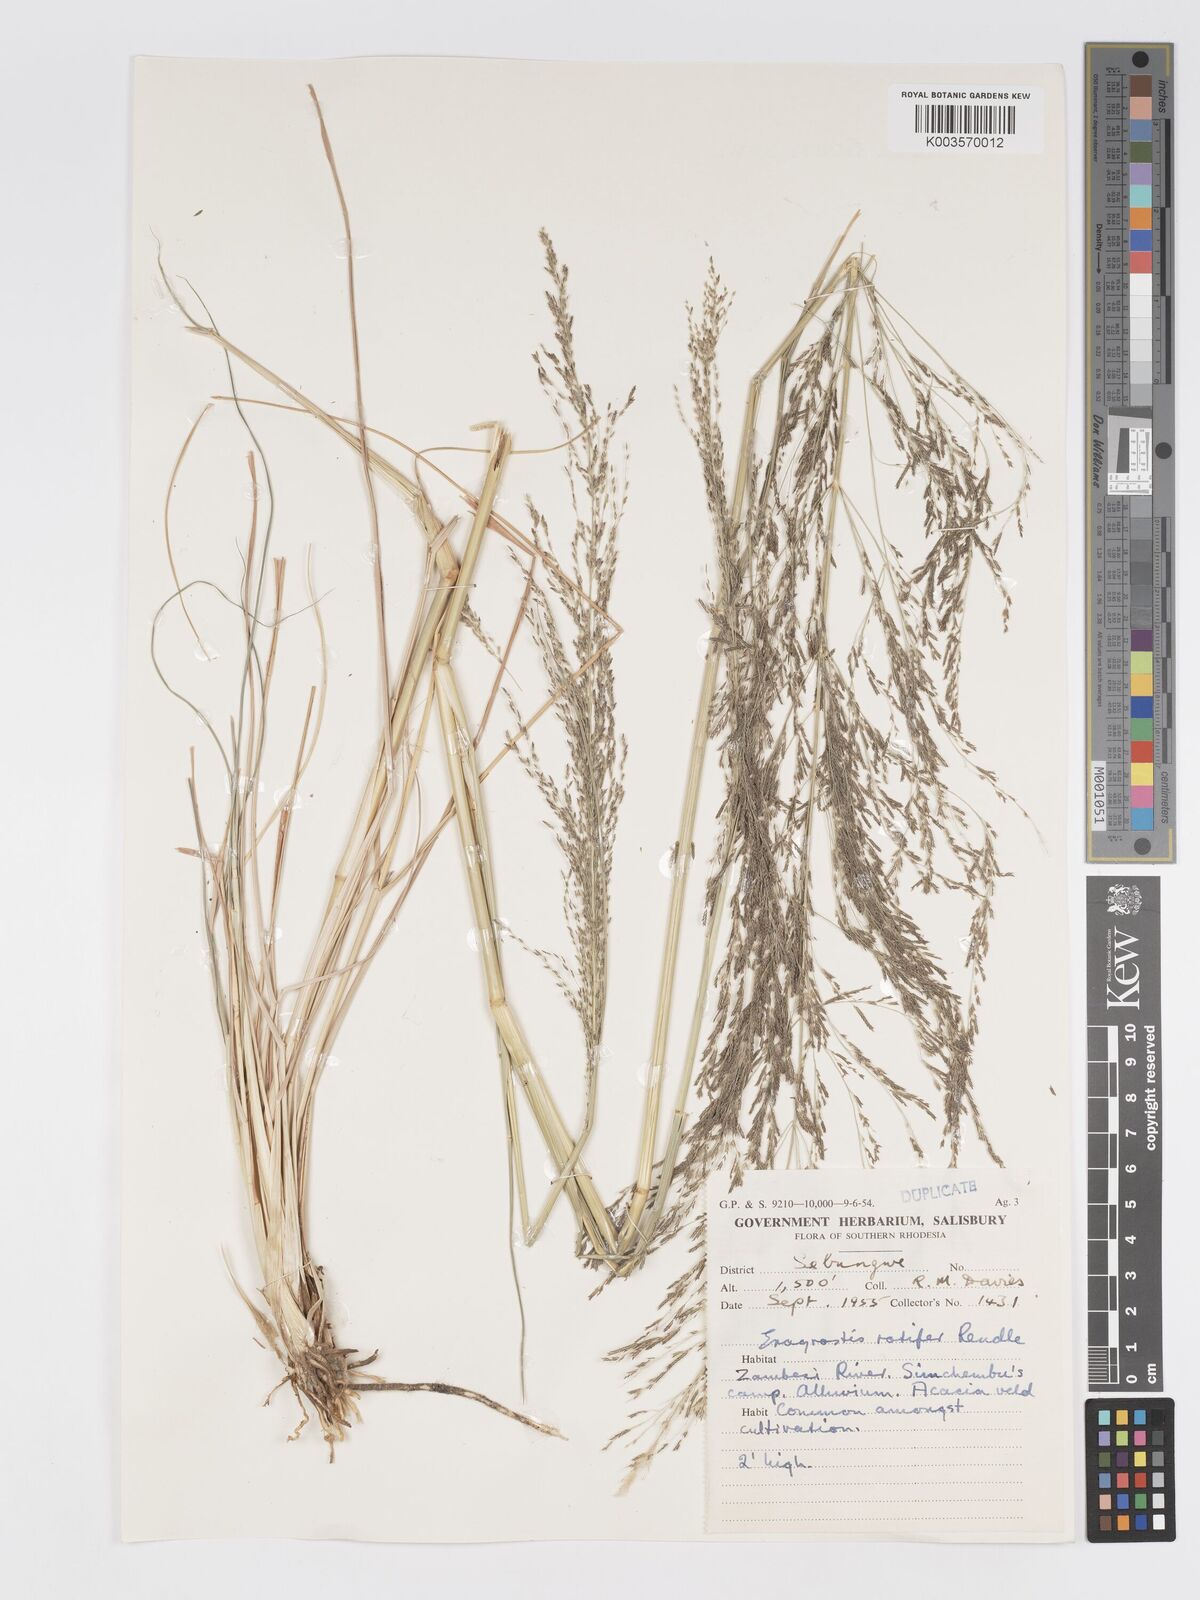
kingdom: Plantae
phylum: Tracheophyta
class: Liliopsida
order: Poales
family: Poaceae
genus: Eragrostis
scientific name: Eragrostis rotifer
